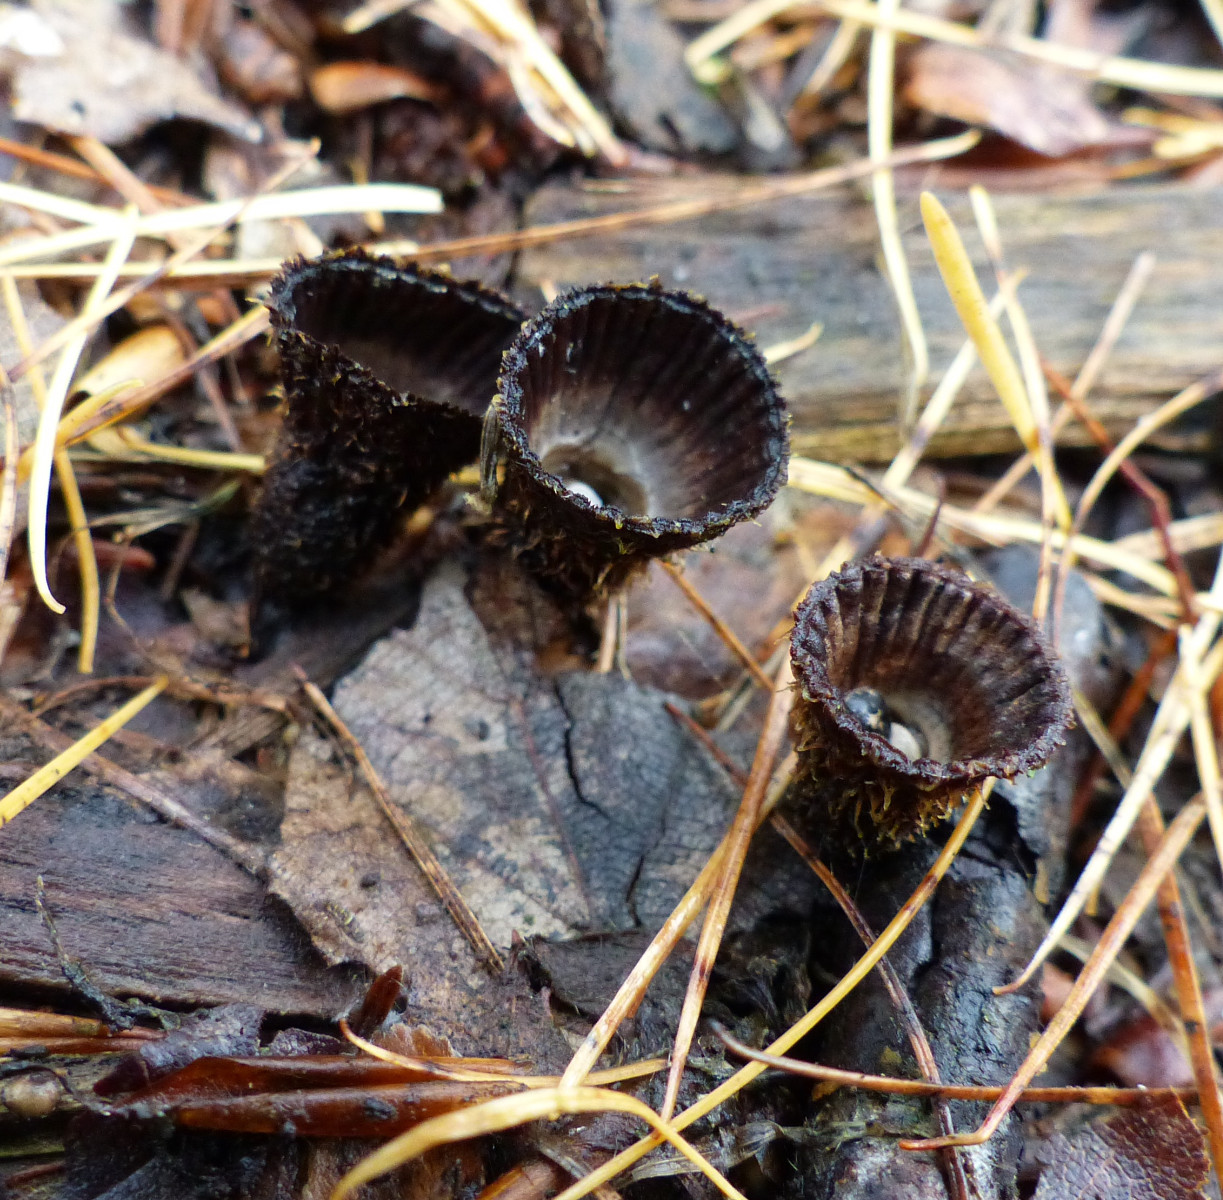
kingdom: Fungi
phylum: Basidiomycota
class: Agaricomycetes
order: Agaricales
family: Agaricaceae
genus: Cyathus
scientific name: Cyathus striatus
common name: stribet redesvamp
